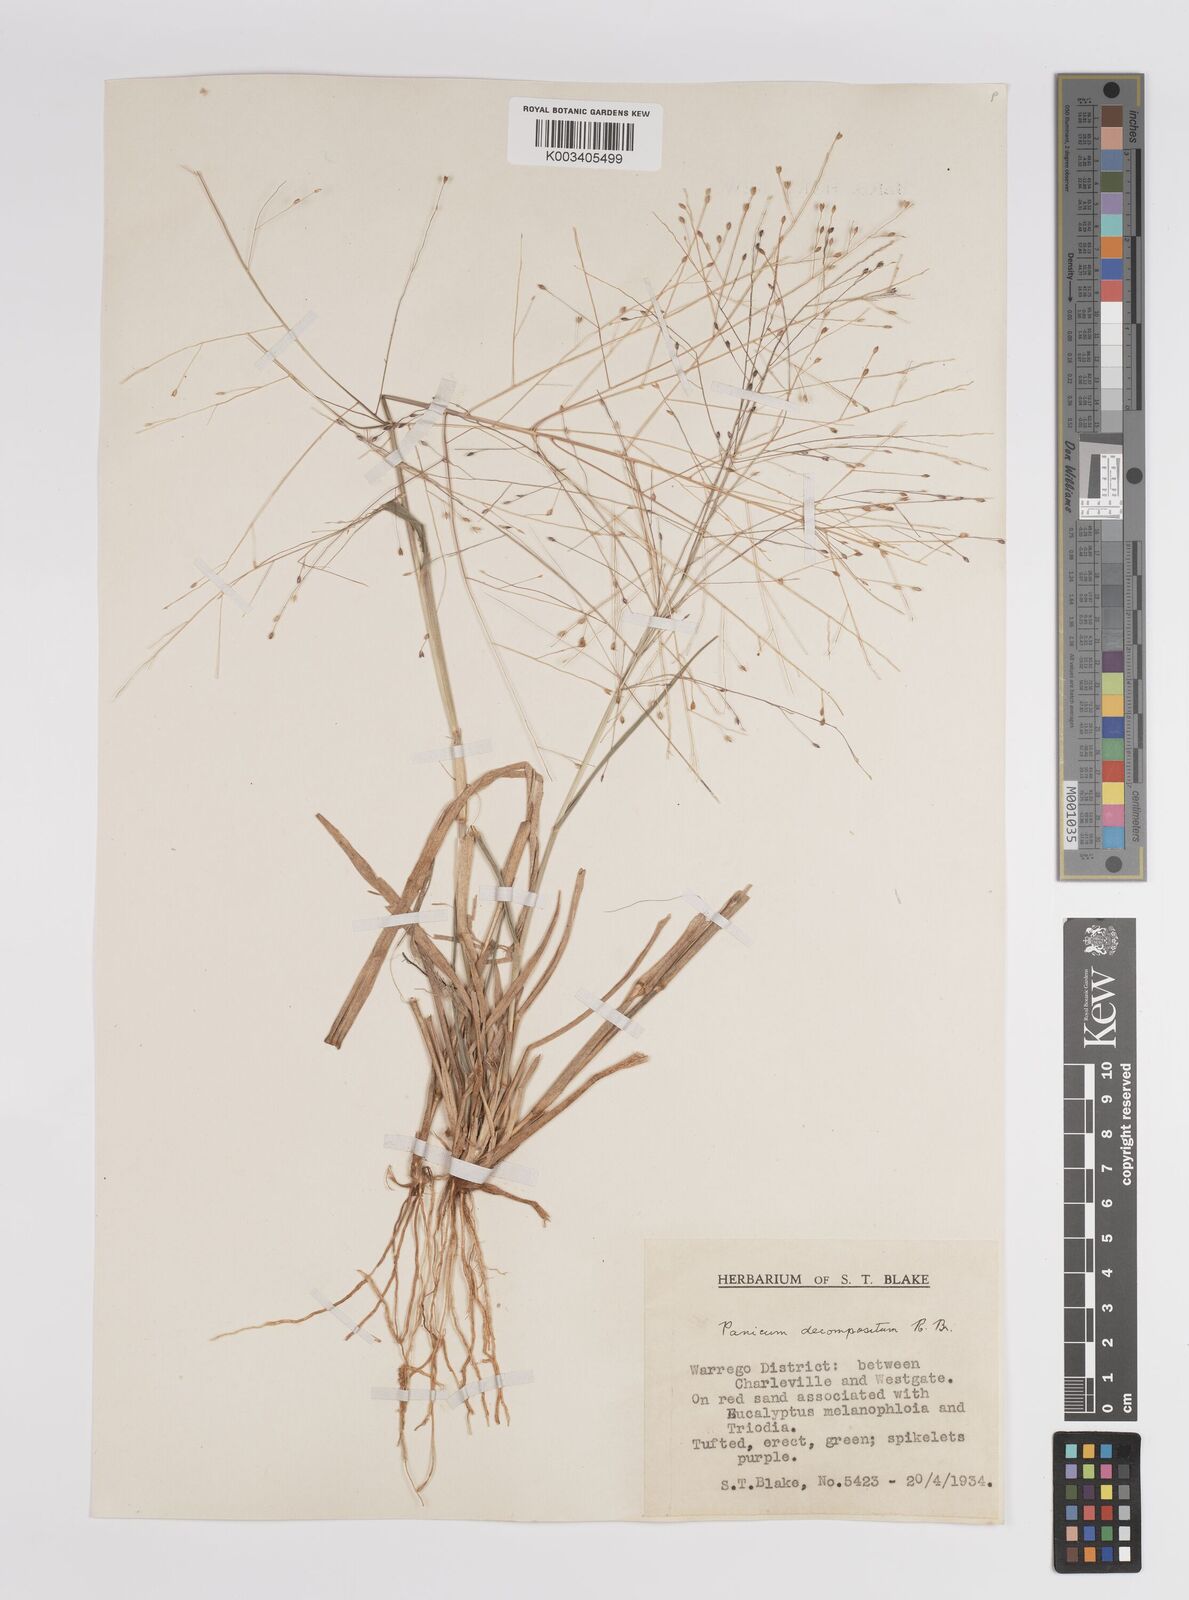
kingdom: Plantae
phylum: Tracheophyta
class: Liliopsida
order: Poales
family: Poaceae
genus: Panicum
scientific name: Panicum
